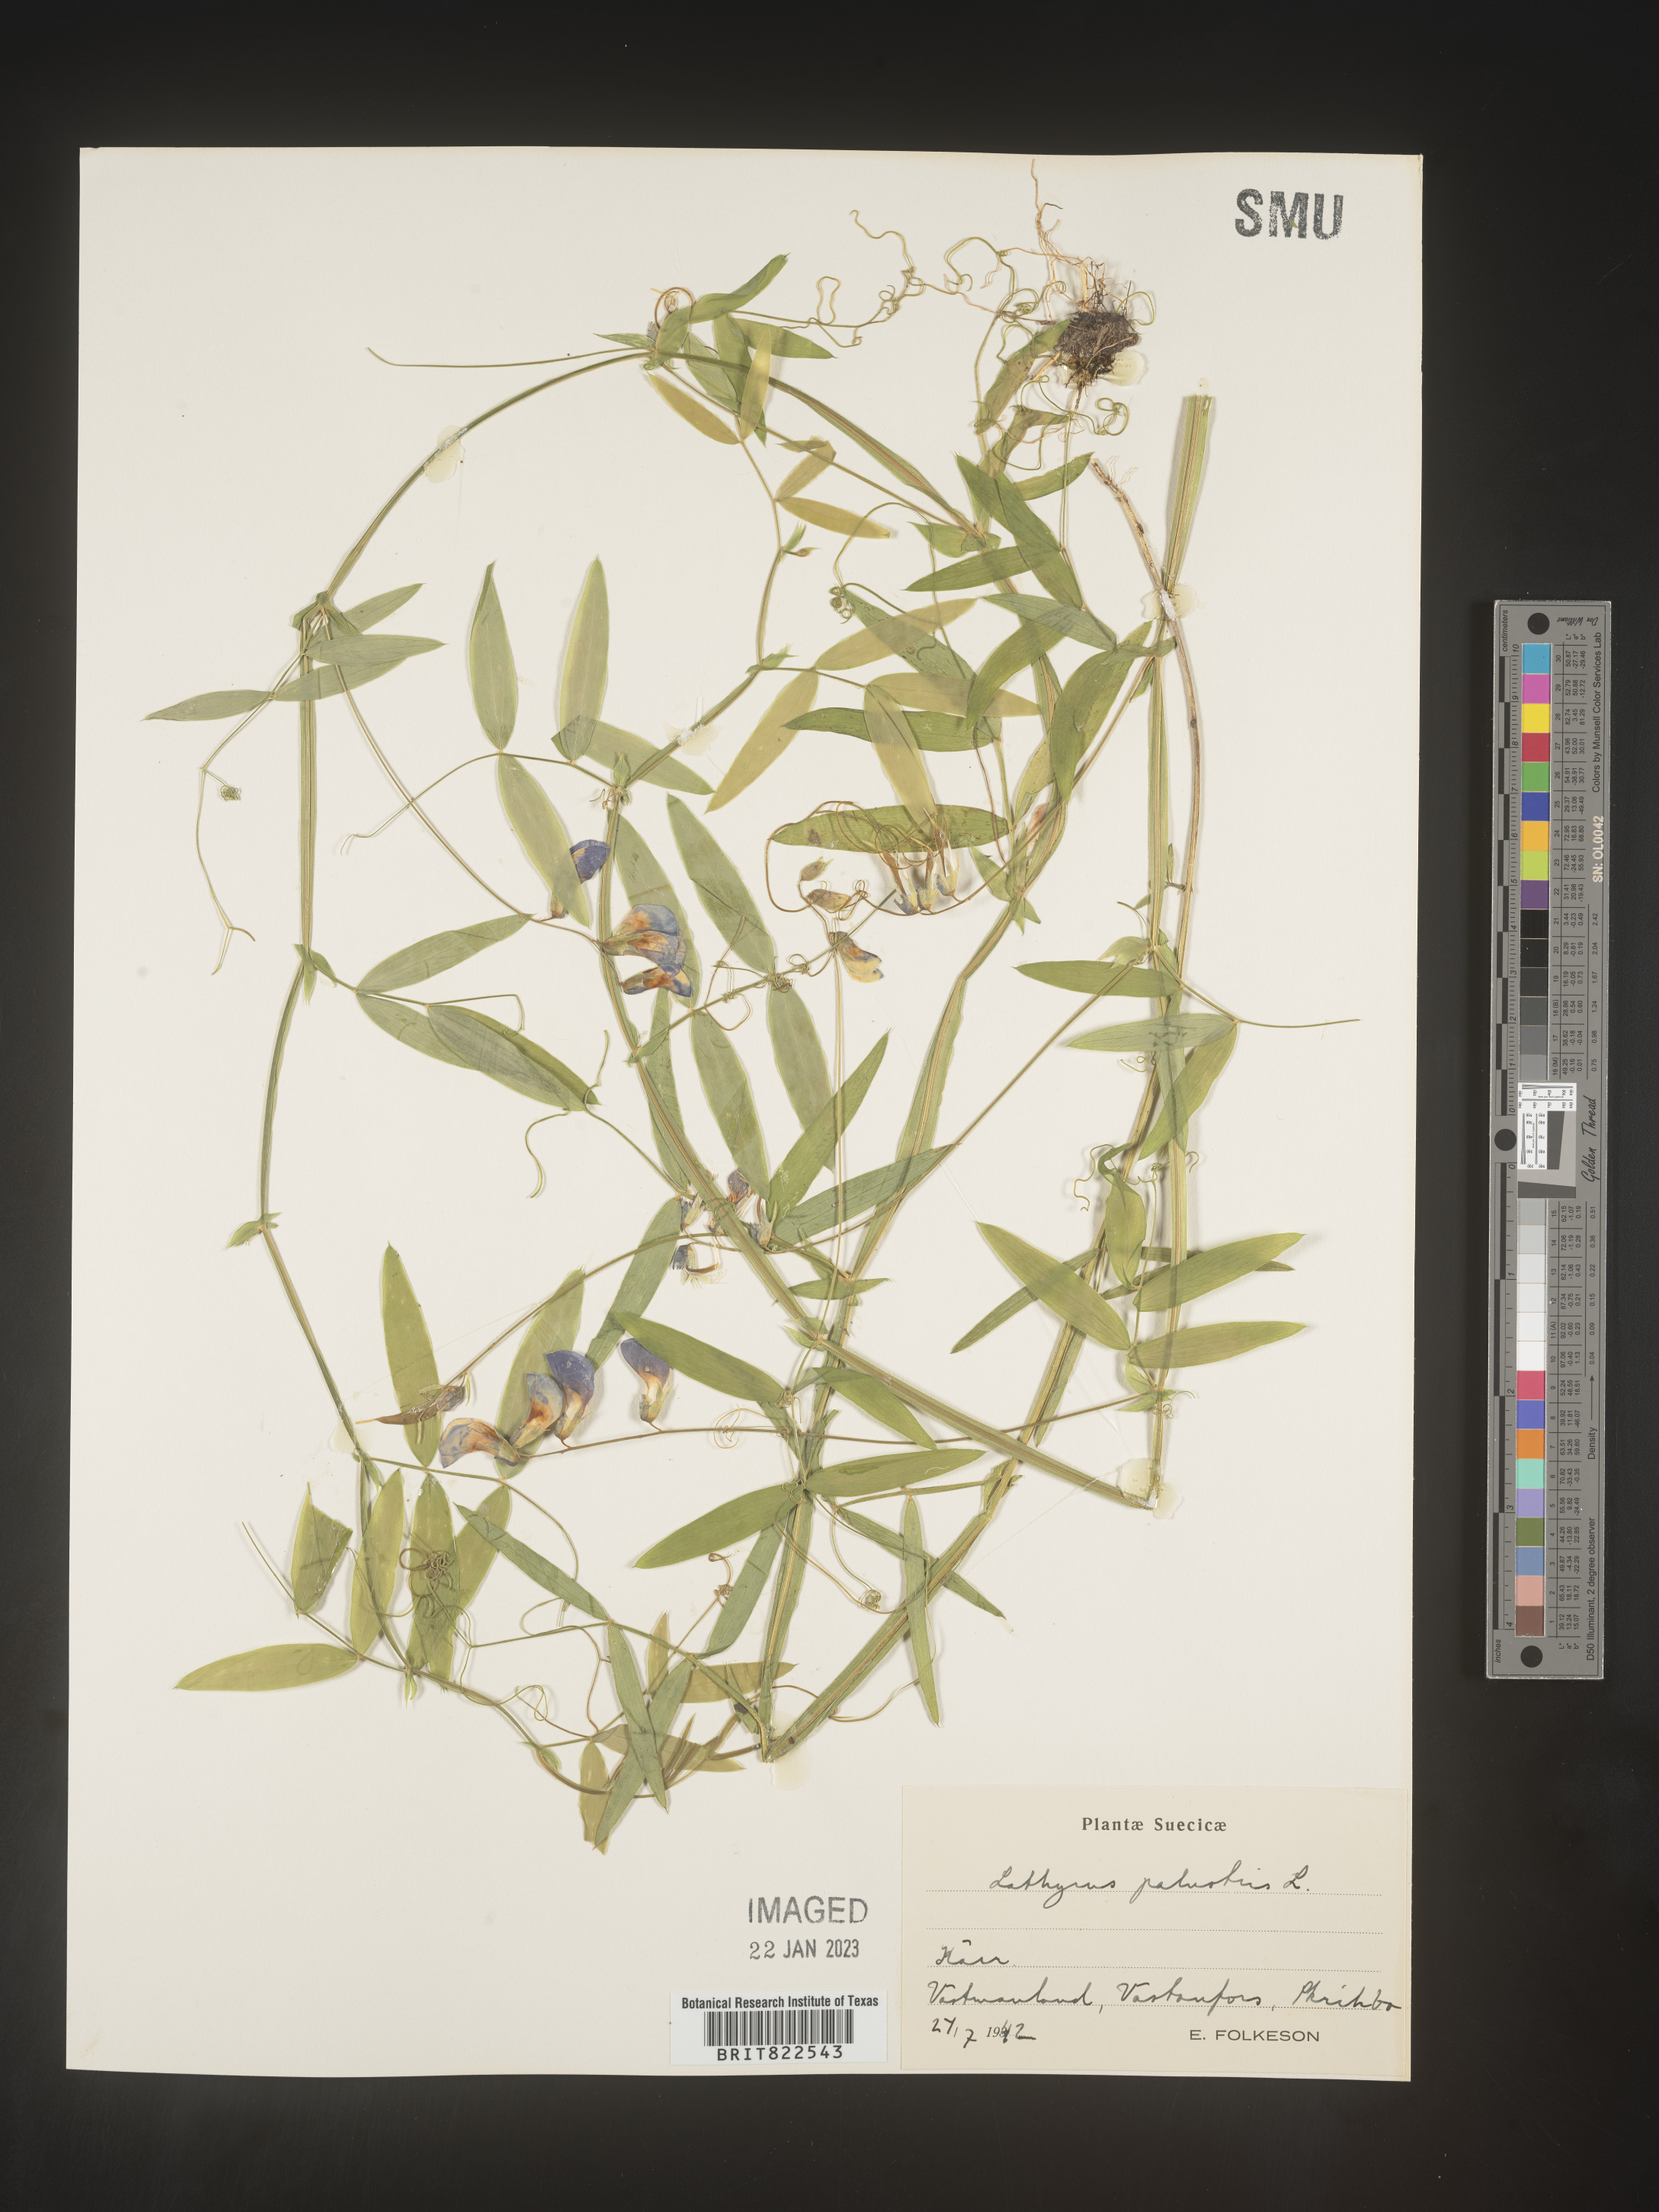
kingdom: Plantae
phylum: Tracheophyta
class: Magnoliopsida
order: Fabales
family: Fabaceae
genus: Lathyrus
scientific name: Lathyrus
